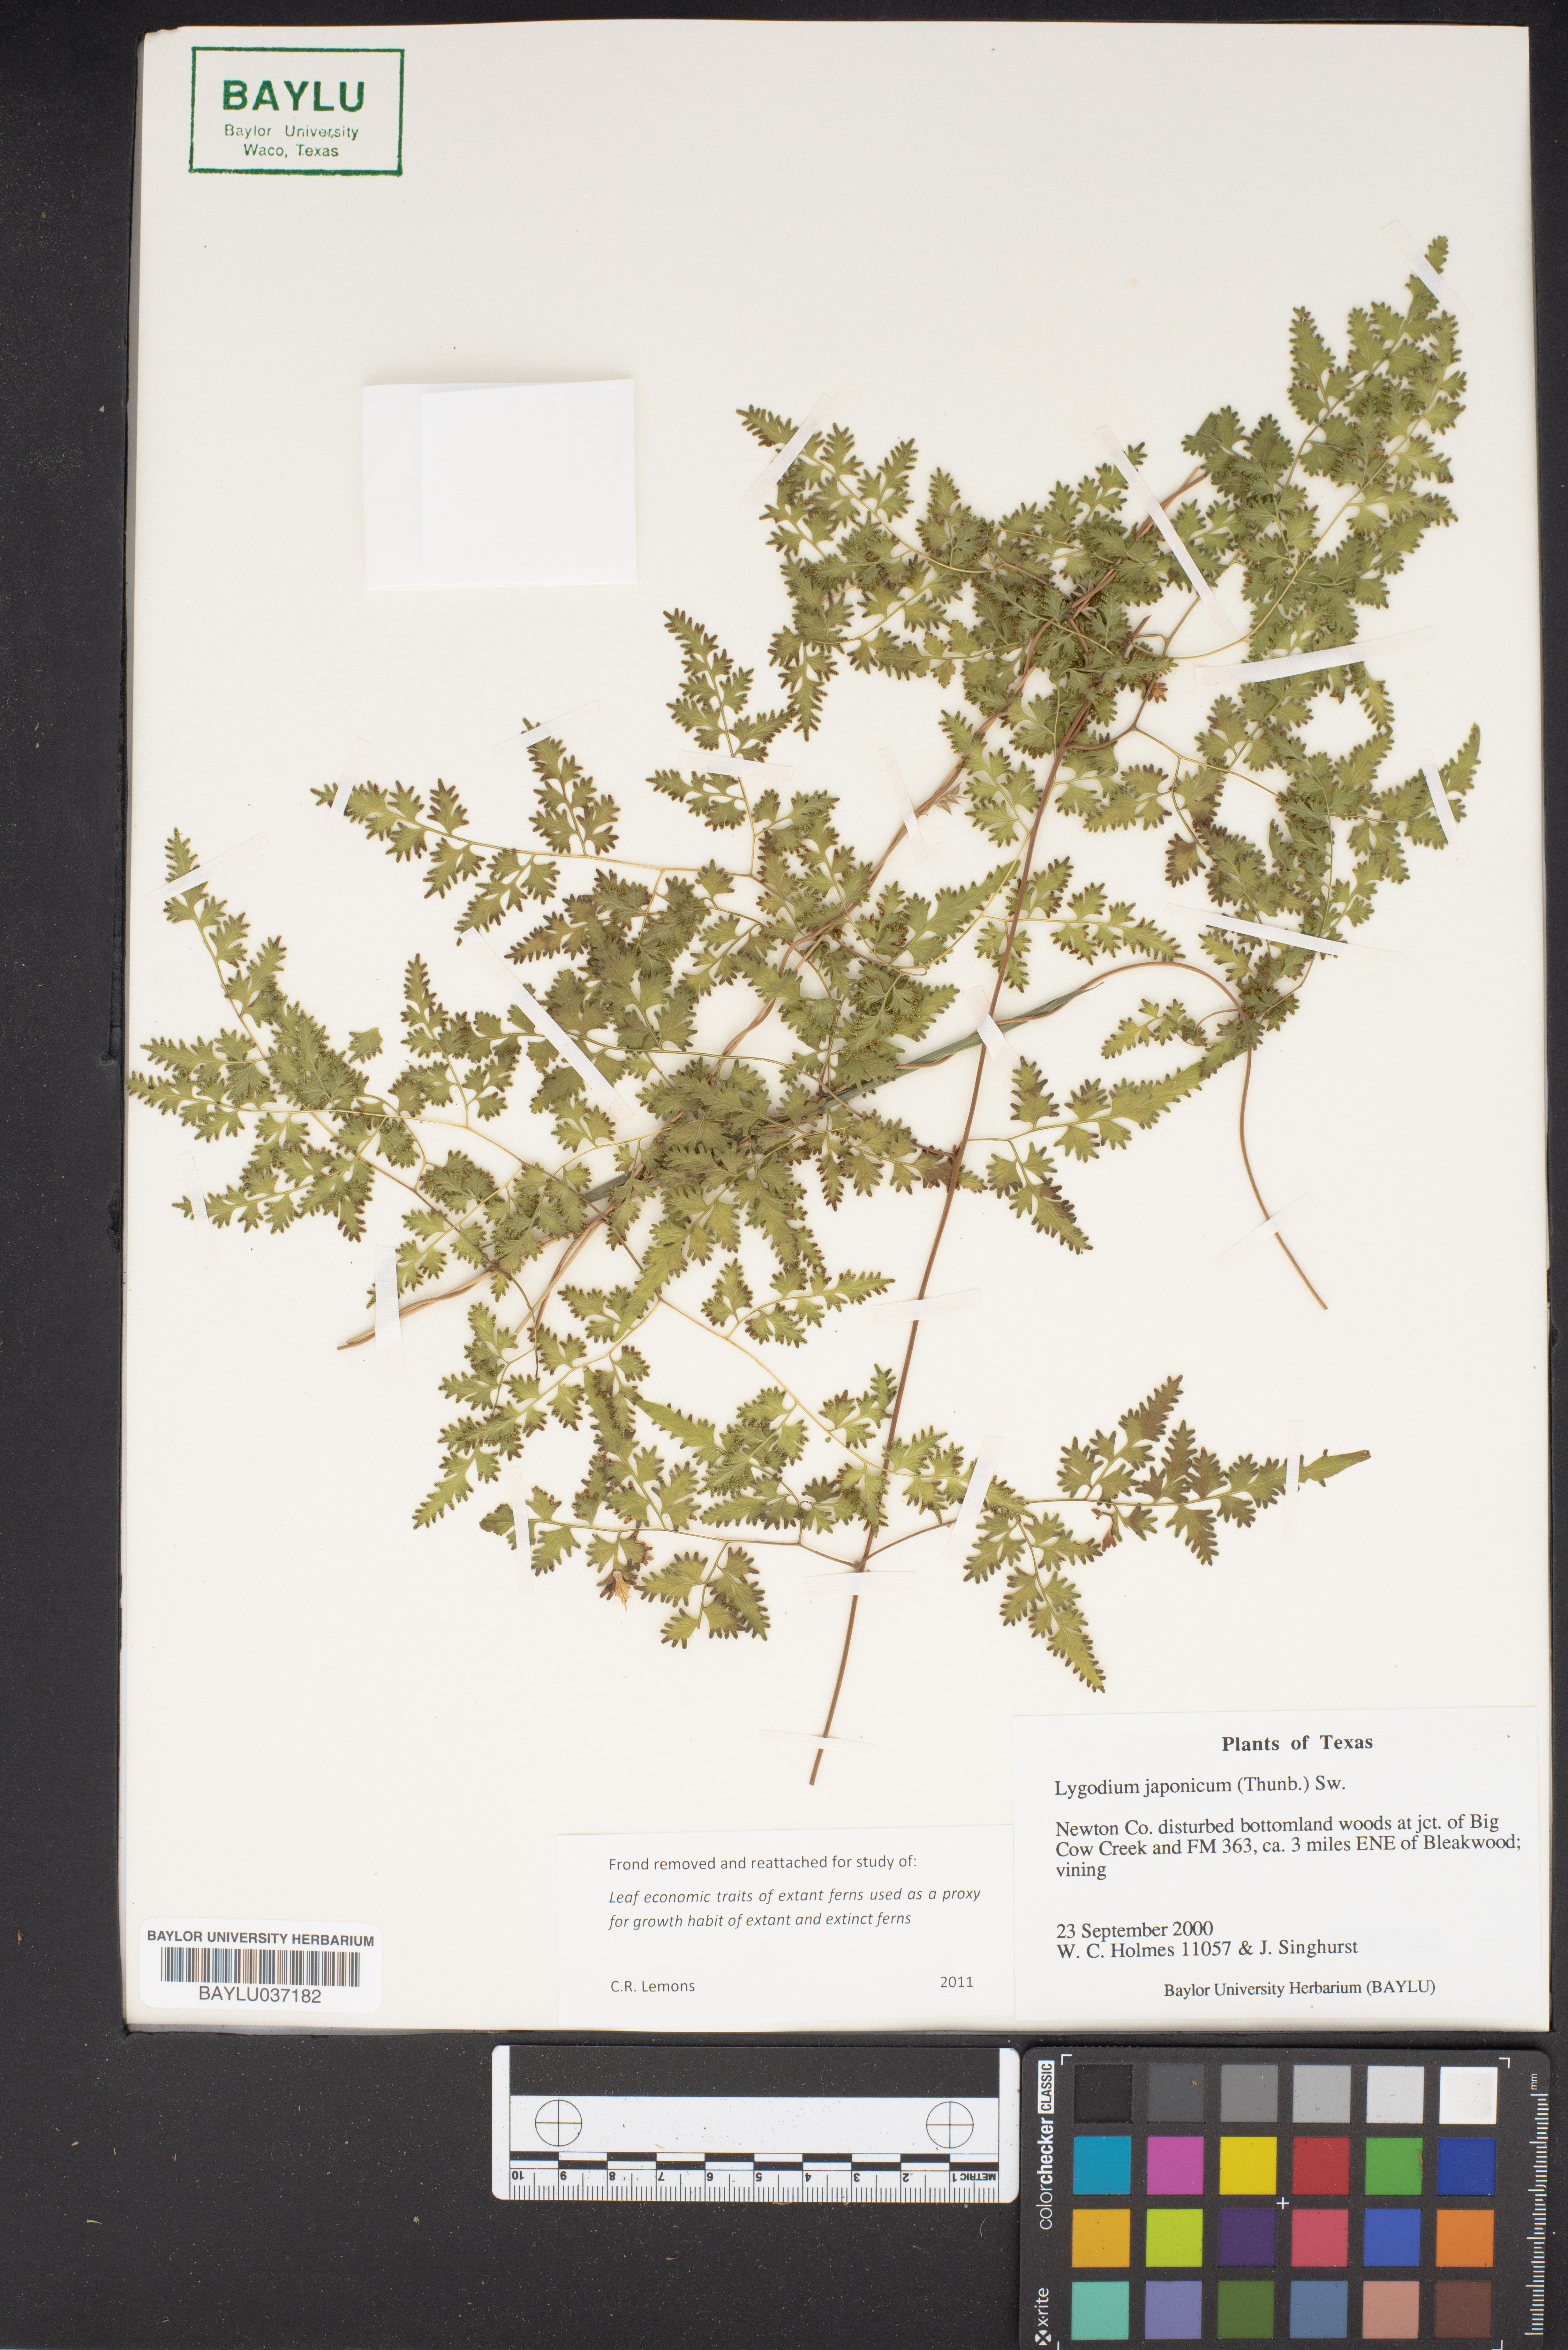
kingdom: Plantae
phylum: Tracheophyta
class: Polypodiopsida
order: Schizaeales
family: Lygodiaceae
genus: Lygodium
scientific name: Lygodium japonicum
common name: Japanese climbing fern
